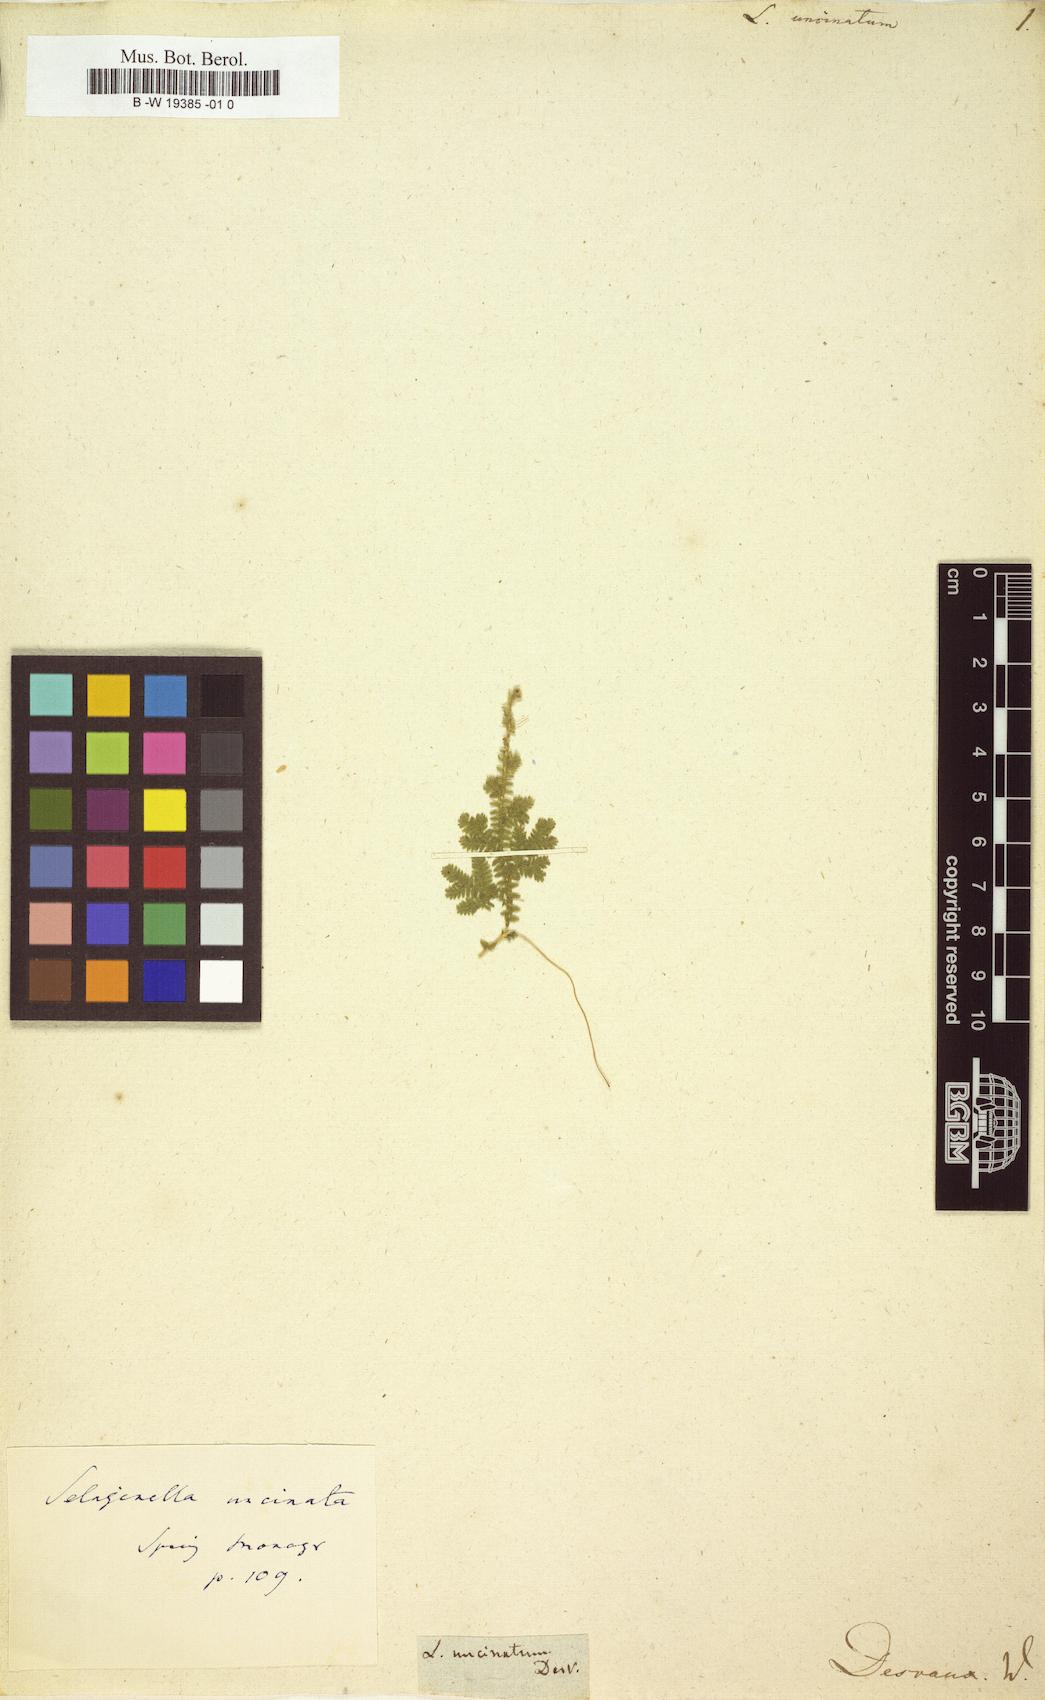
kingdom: Plantae
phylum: Tracheophyta
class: Lycopodiopsida
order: Selaginellales
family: Selaginellaceae
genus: Selaginella
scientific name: Selaginella uncinata
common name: Blue spikemoss
